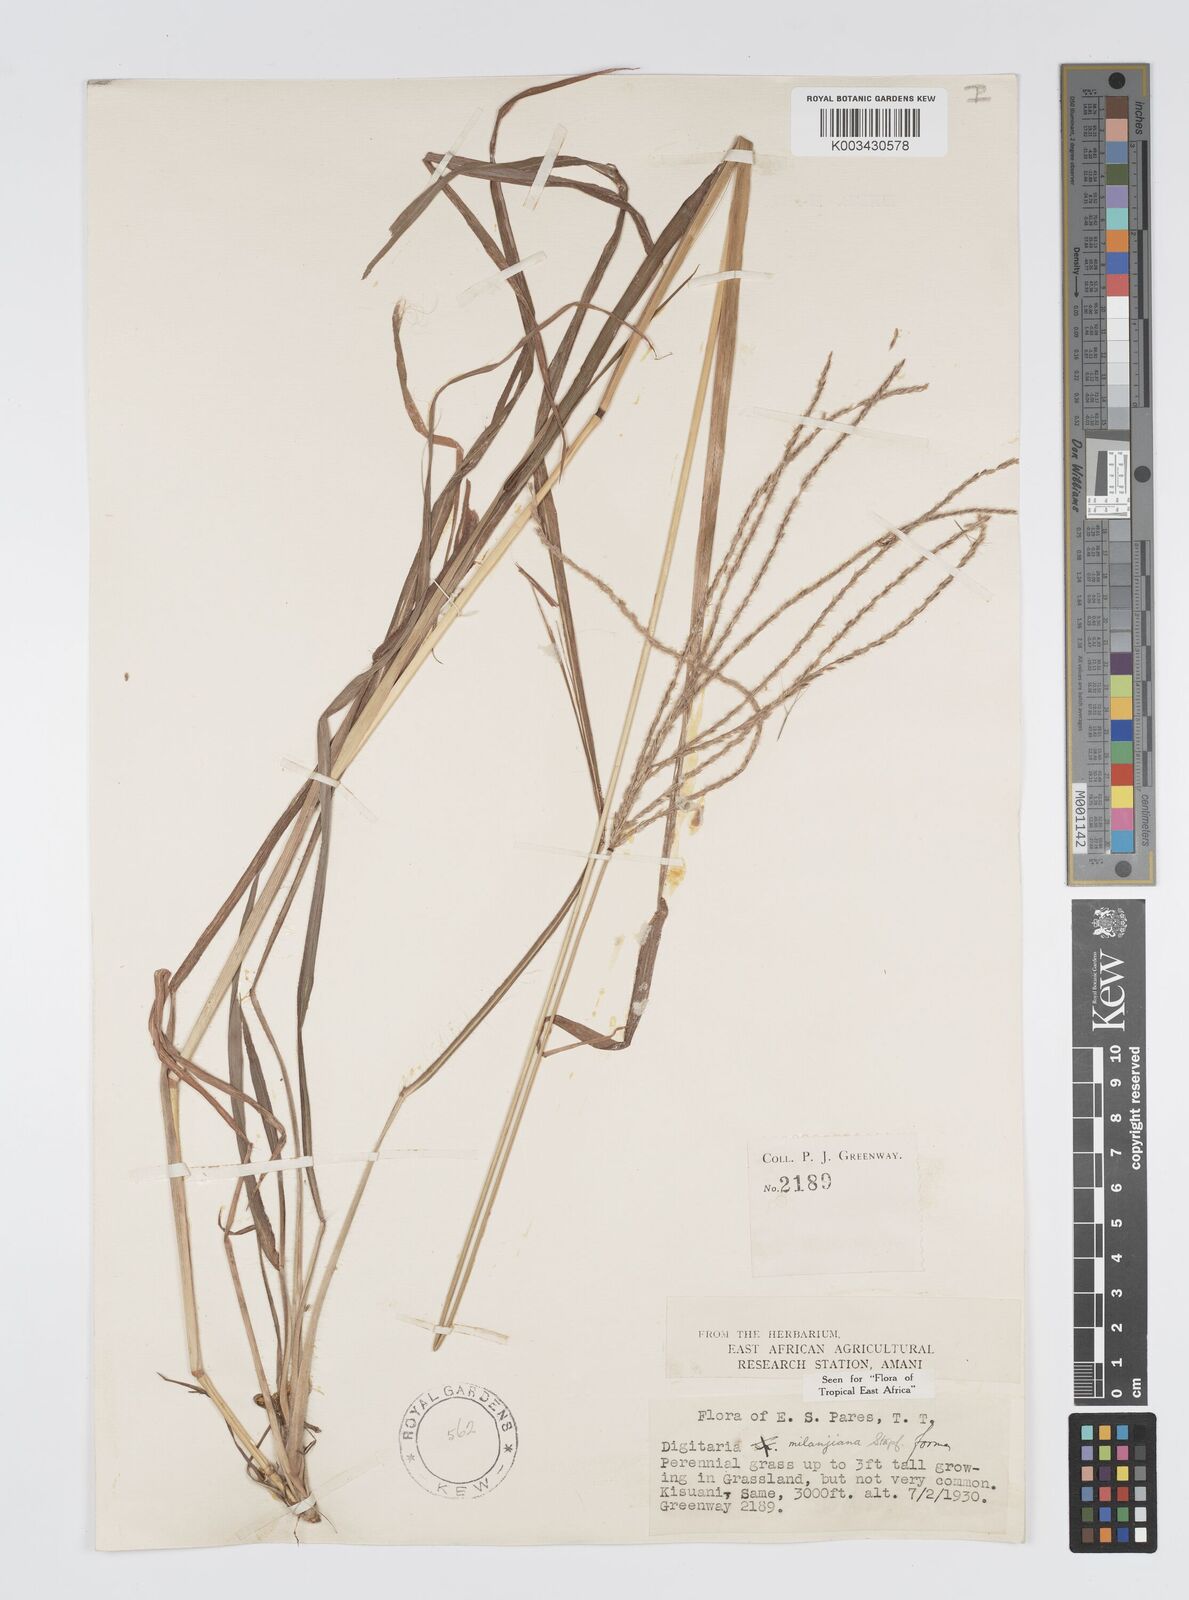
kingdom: Plantae
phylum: Tracheophyta
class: Liliopsida
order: Poales
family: Poaceae
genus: Digitaria
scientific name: Digitaria milanjiana
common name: Madagascar crabgrass
